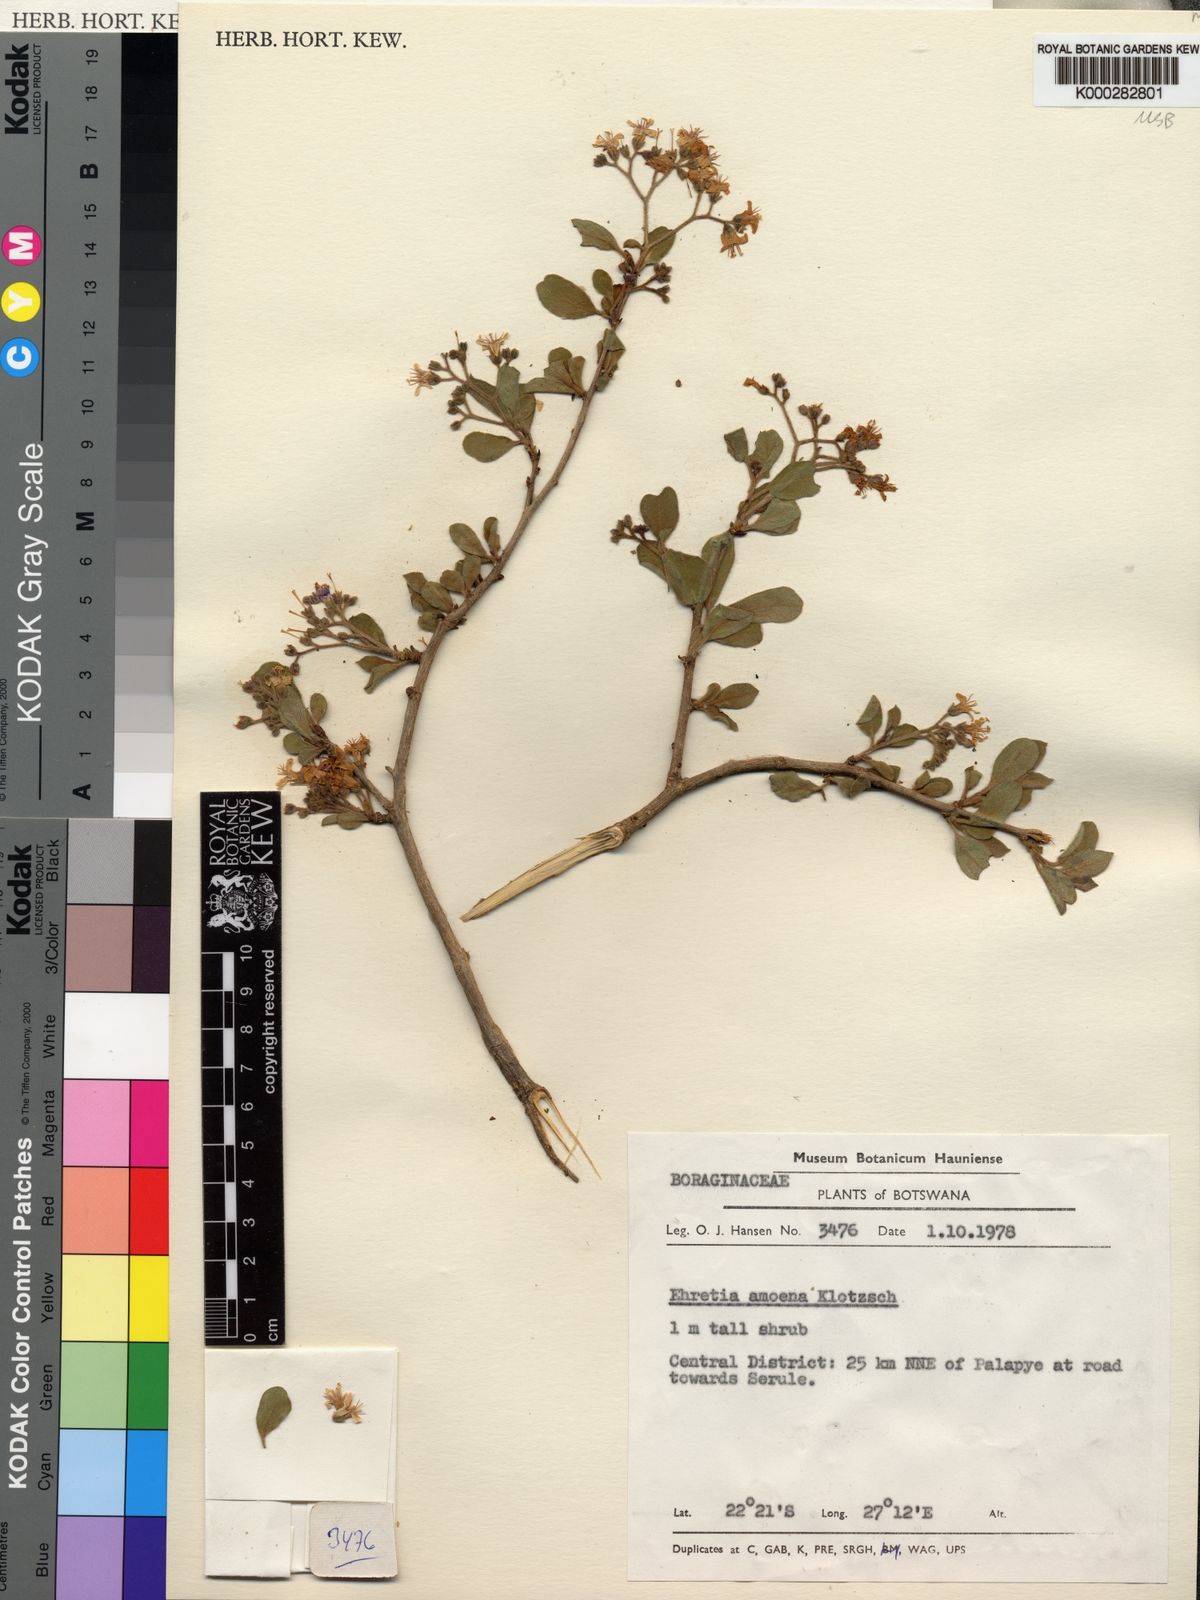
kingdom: Plantae
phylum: Tracheophyta
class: Magnoliopsida
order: Boraginales
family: Ehretiaceae
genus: Ehretia
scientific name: Ehretia amoena
